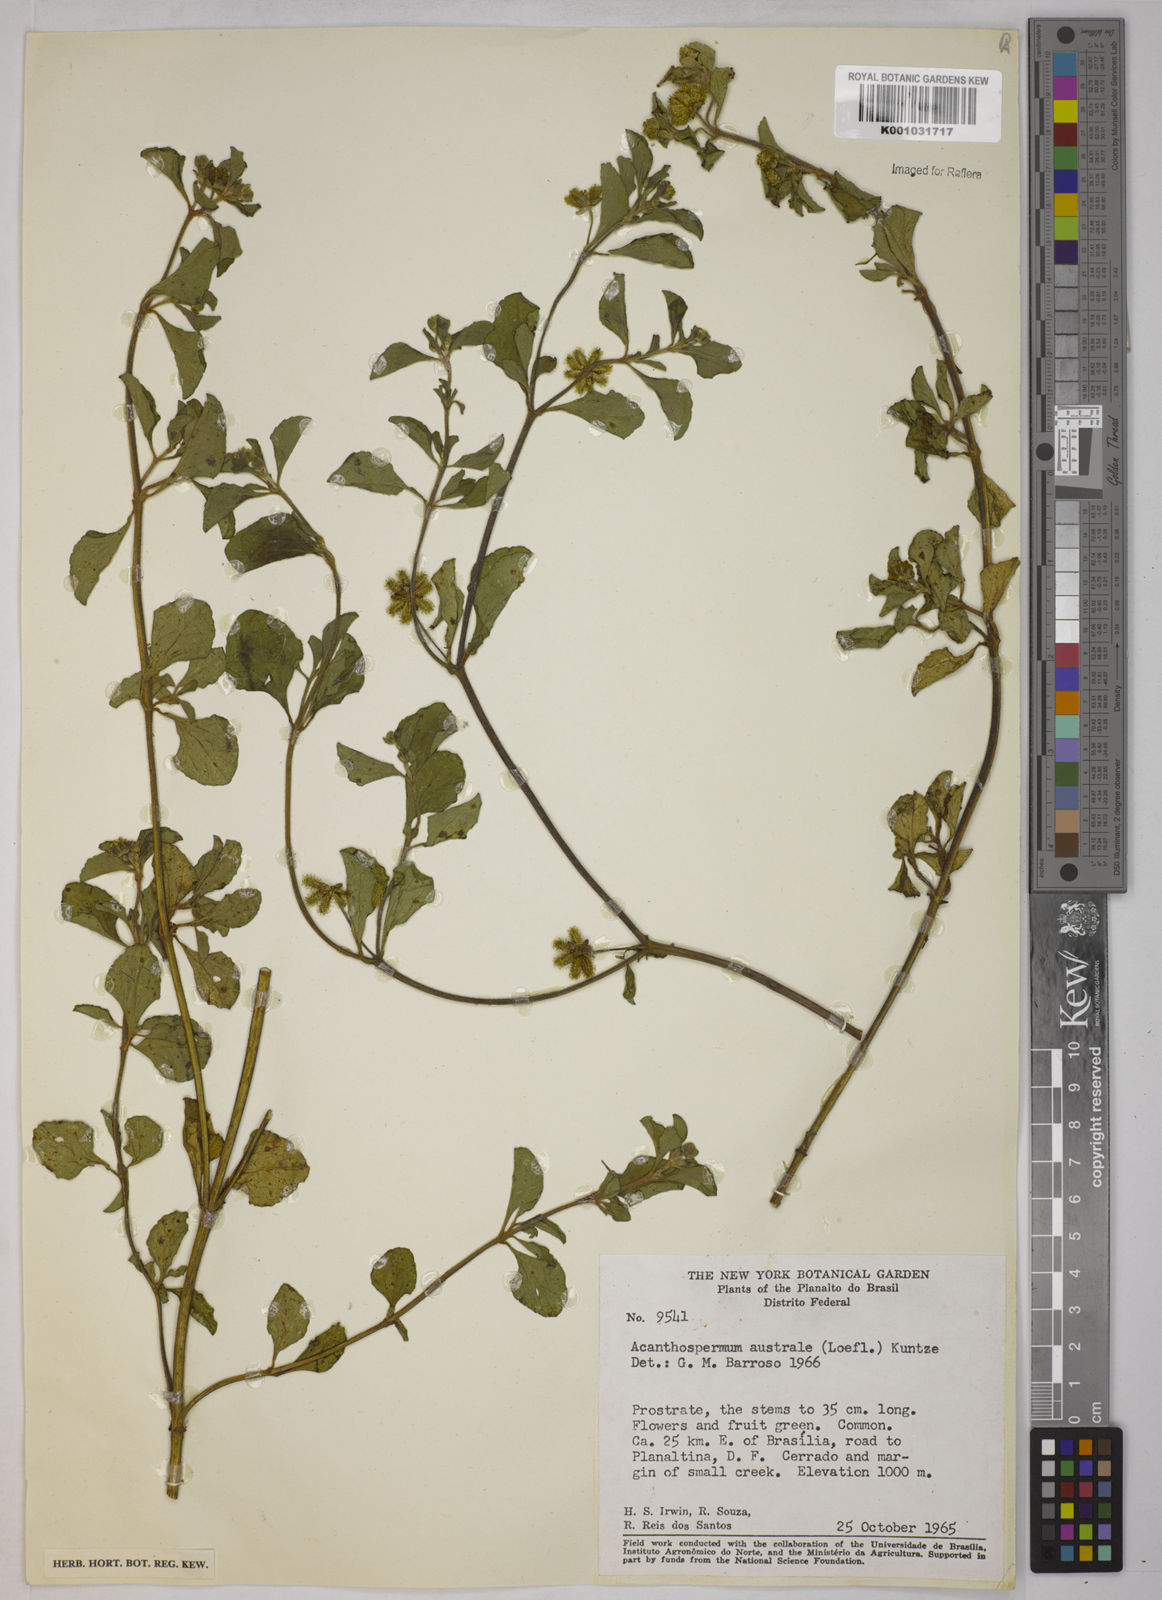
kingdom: Plantae
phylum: Tracheophyta
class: Magnoliopsida
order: Asterales
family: Asteraceae
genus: Acanthospermum
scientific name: Acanthospermum australe
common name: Paraguayan starbur
